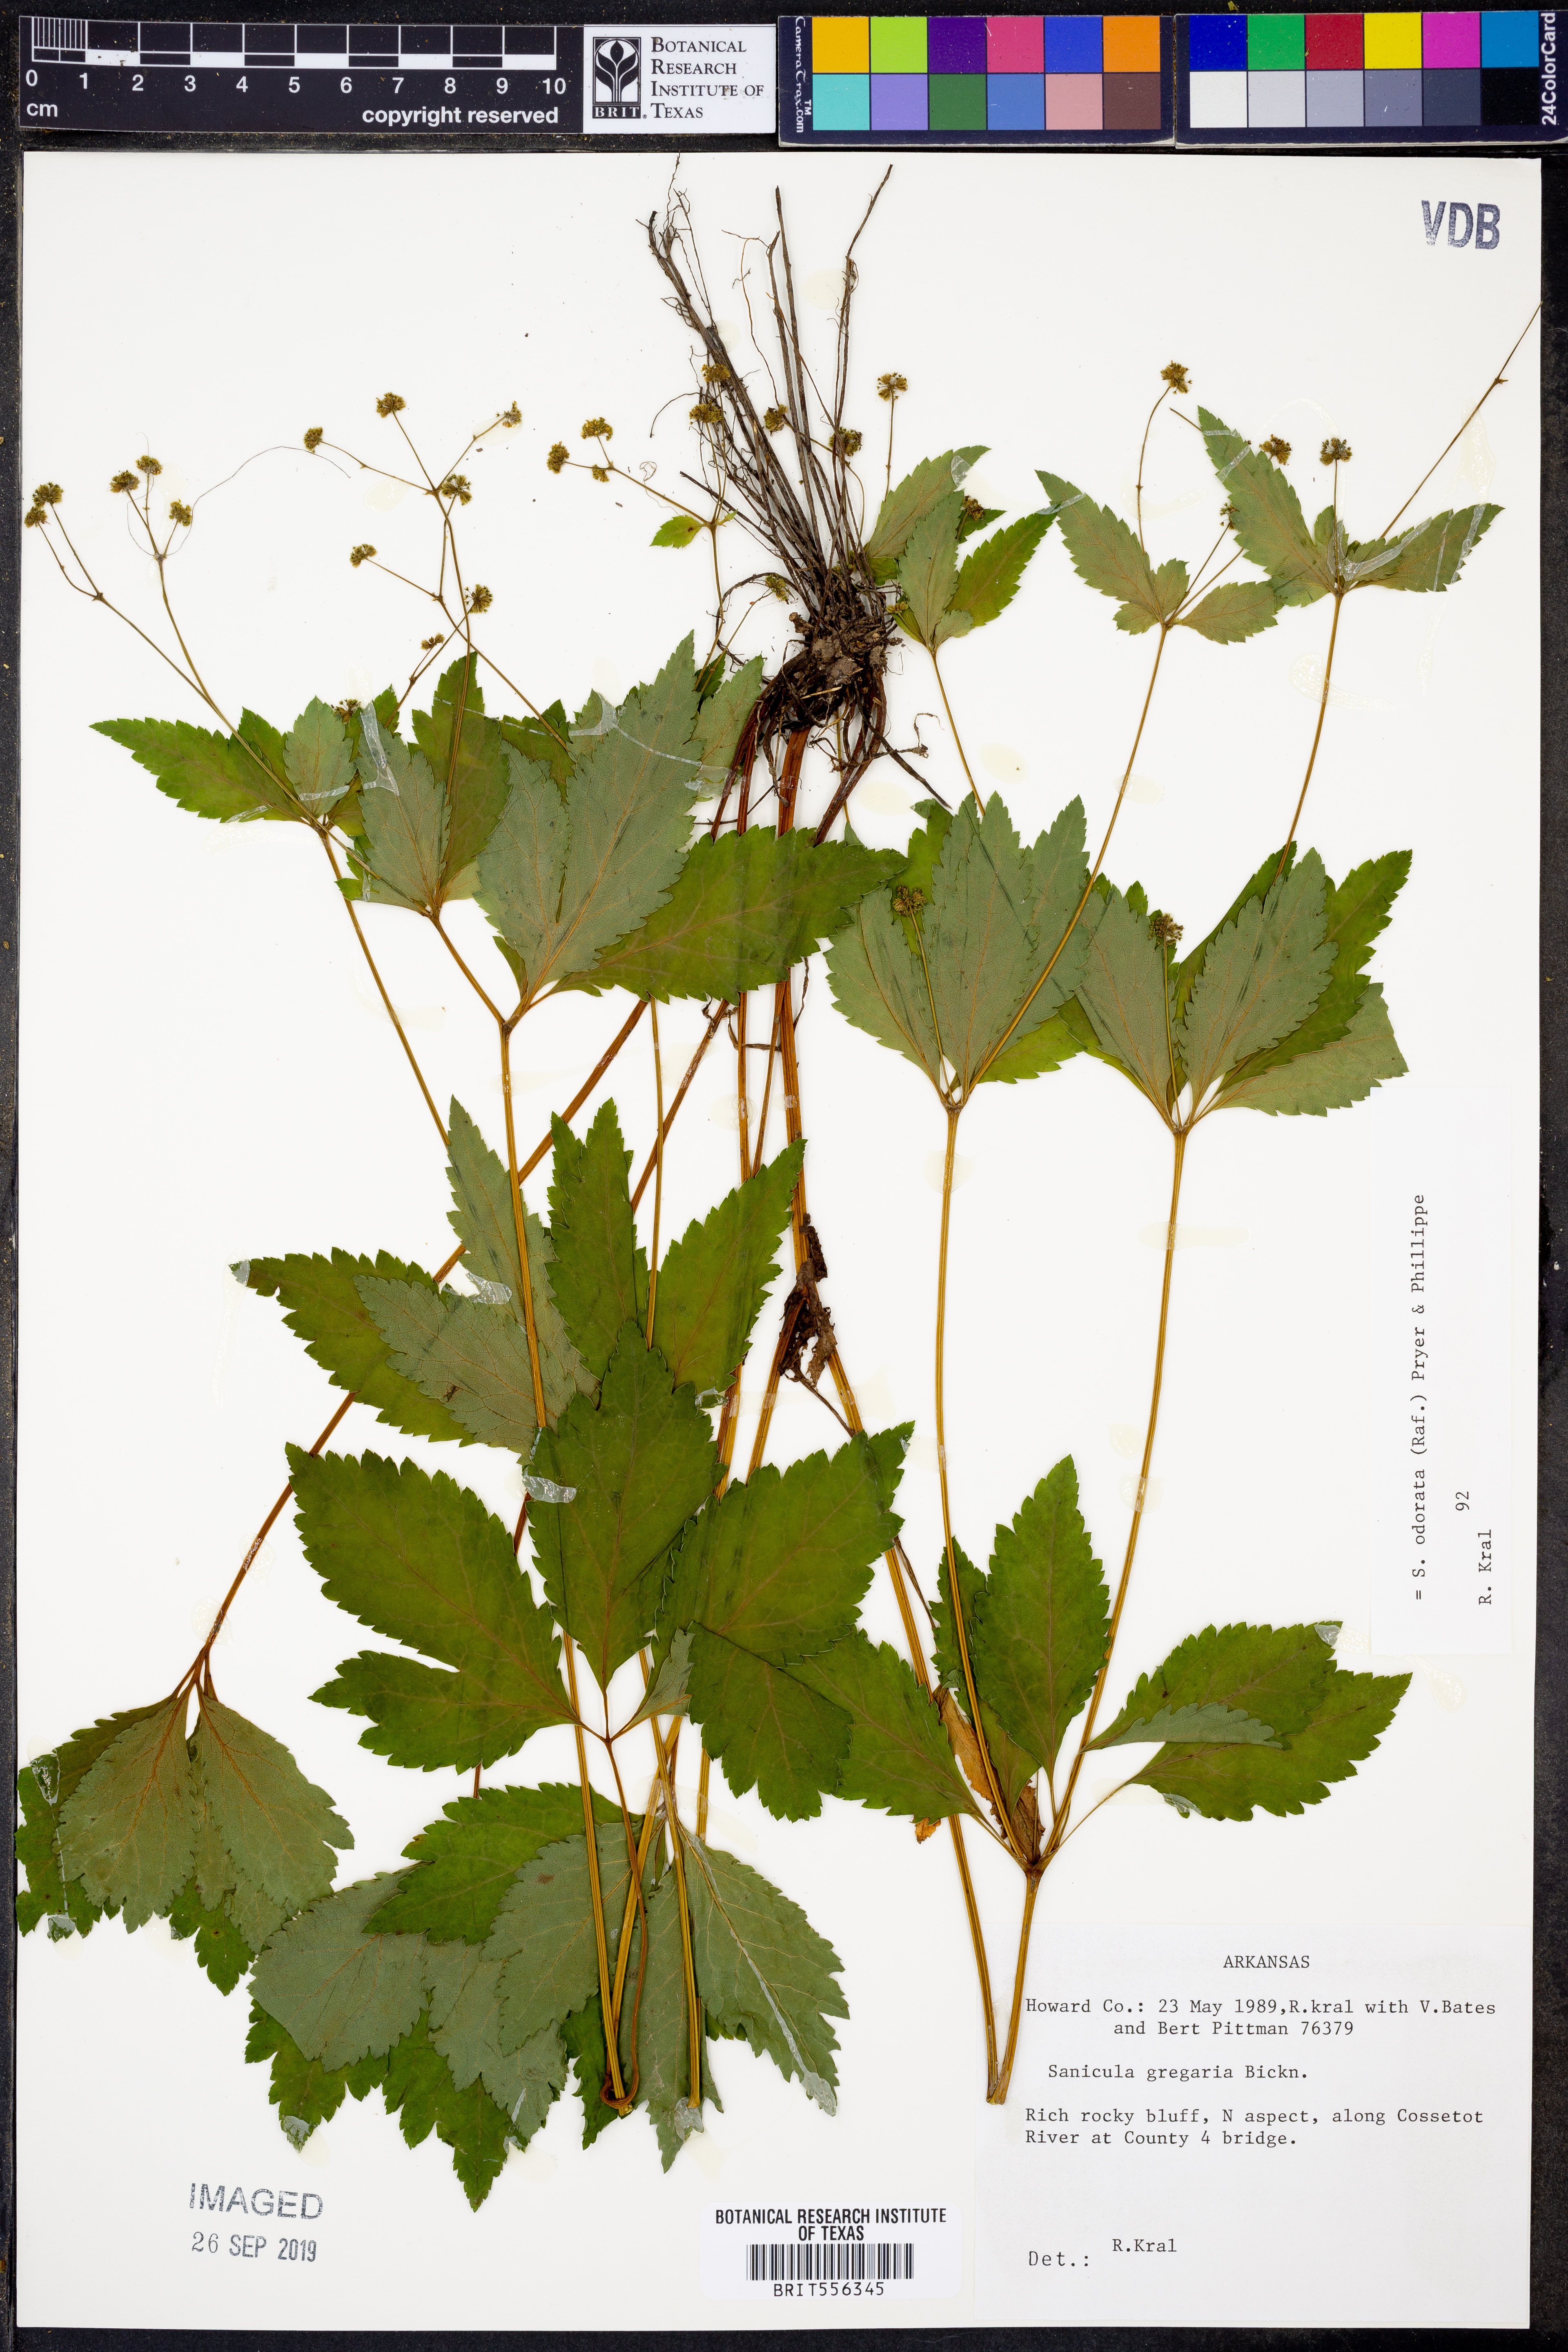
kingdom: Plantae
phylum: Tracheophyta
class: Magnoliopsida
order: Apiales
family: Apiaceae
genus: Sanicula
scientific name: Sanicula odorata
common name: Cluster sanicle
